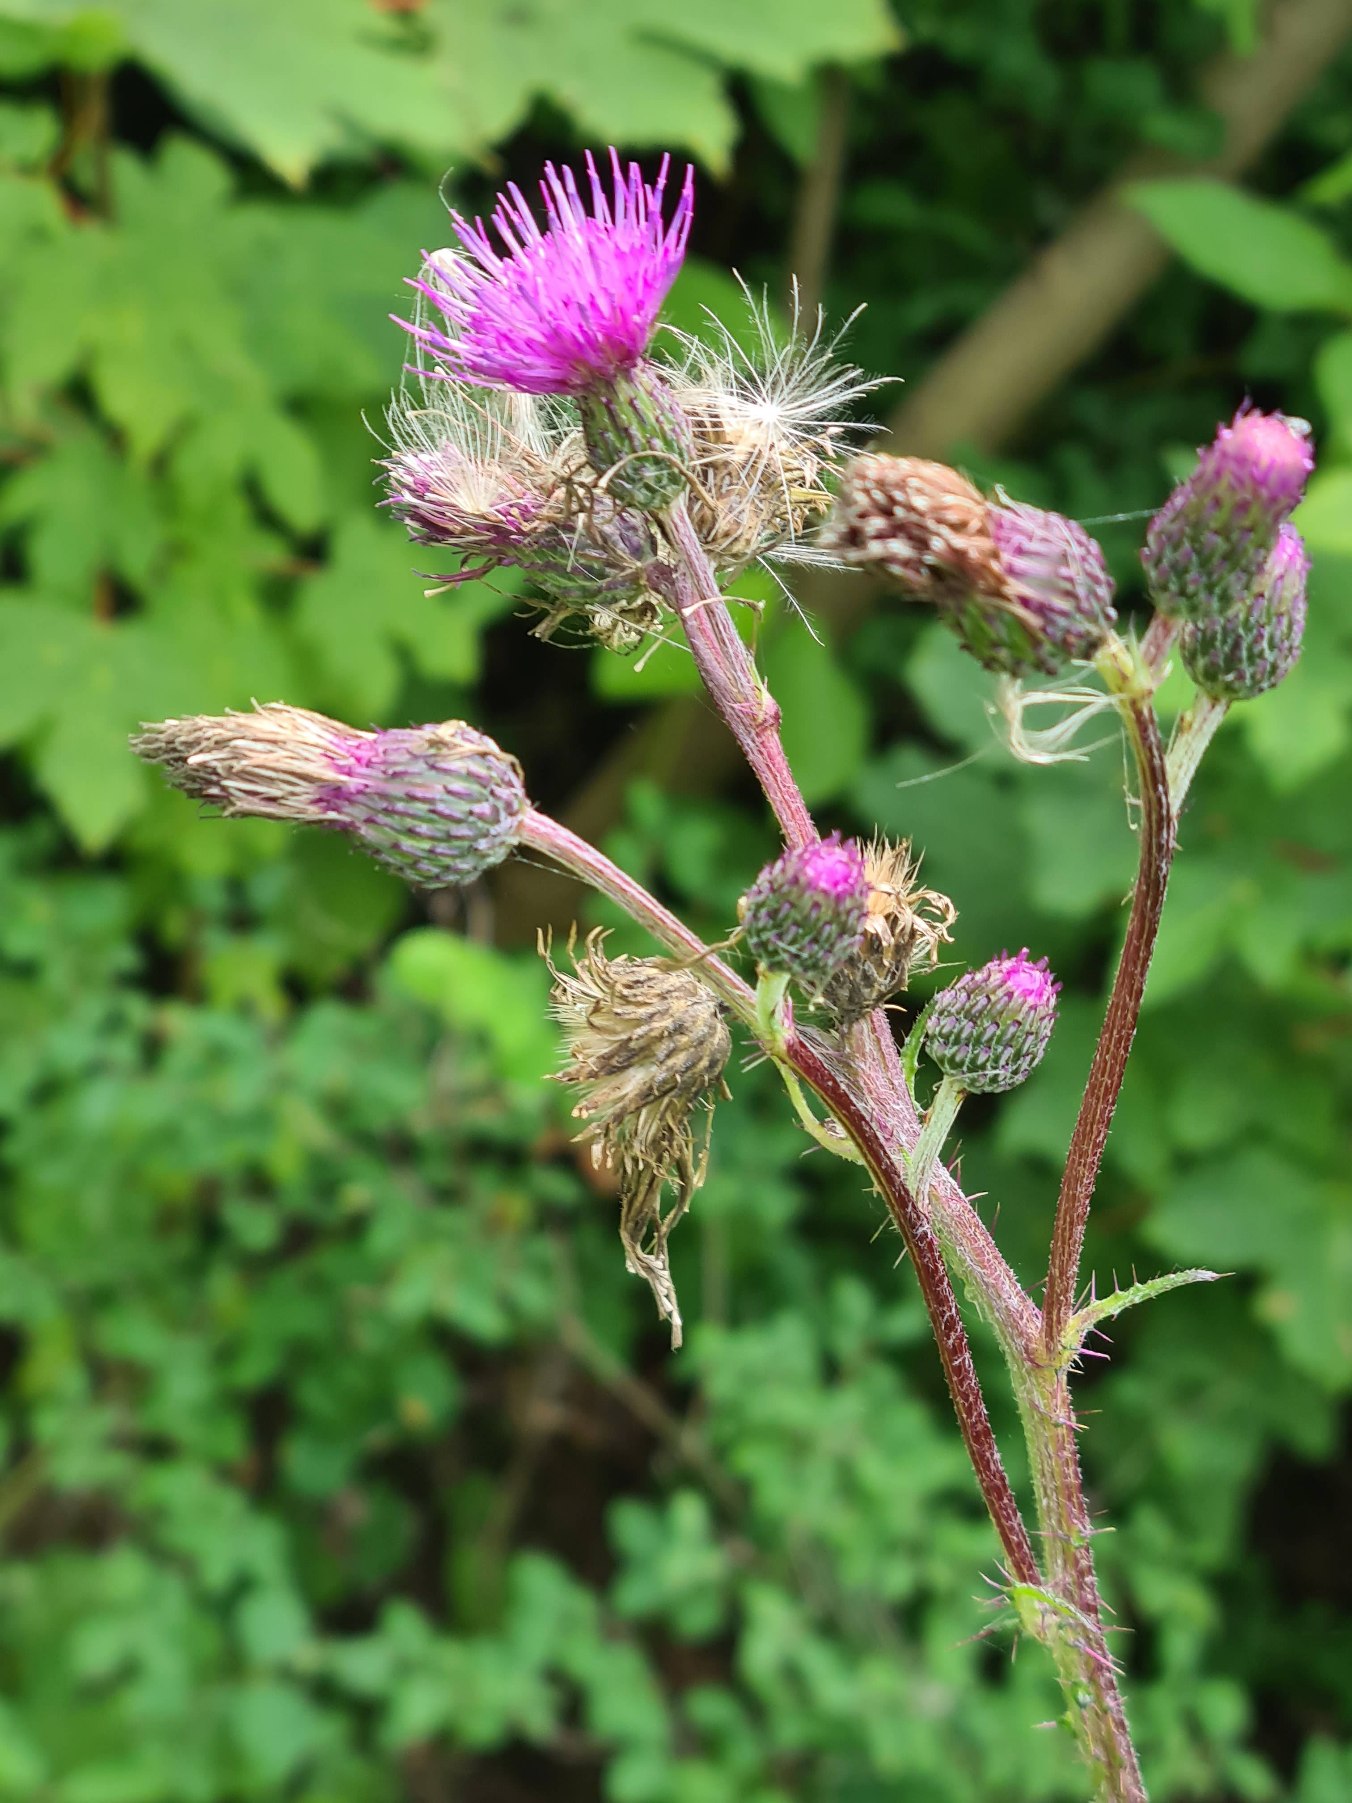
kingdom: Plantae
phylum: Tracheophyta
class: Magnoliopsida
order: Asterales
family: Asteraceae
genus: Cirsium
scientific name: Cirsium palustre
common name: Kær-tidsel
